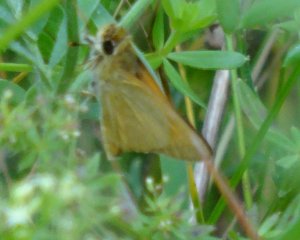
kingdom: Animalia
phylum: Arthropoda
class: Insecta
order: Lepidoptera
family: Hesperiidae
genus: Atrytone
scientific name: Atrytone delaware
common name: Delaware Skipper
